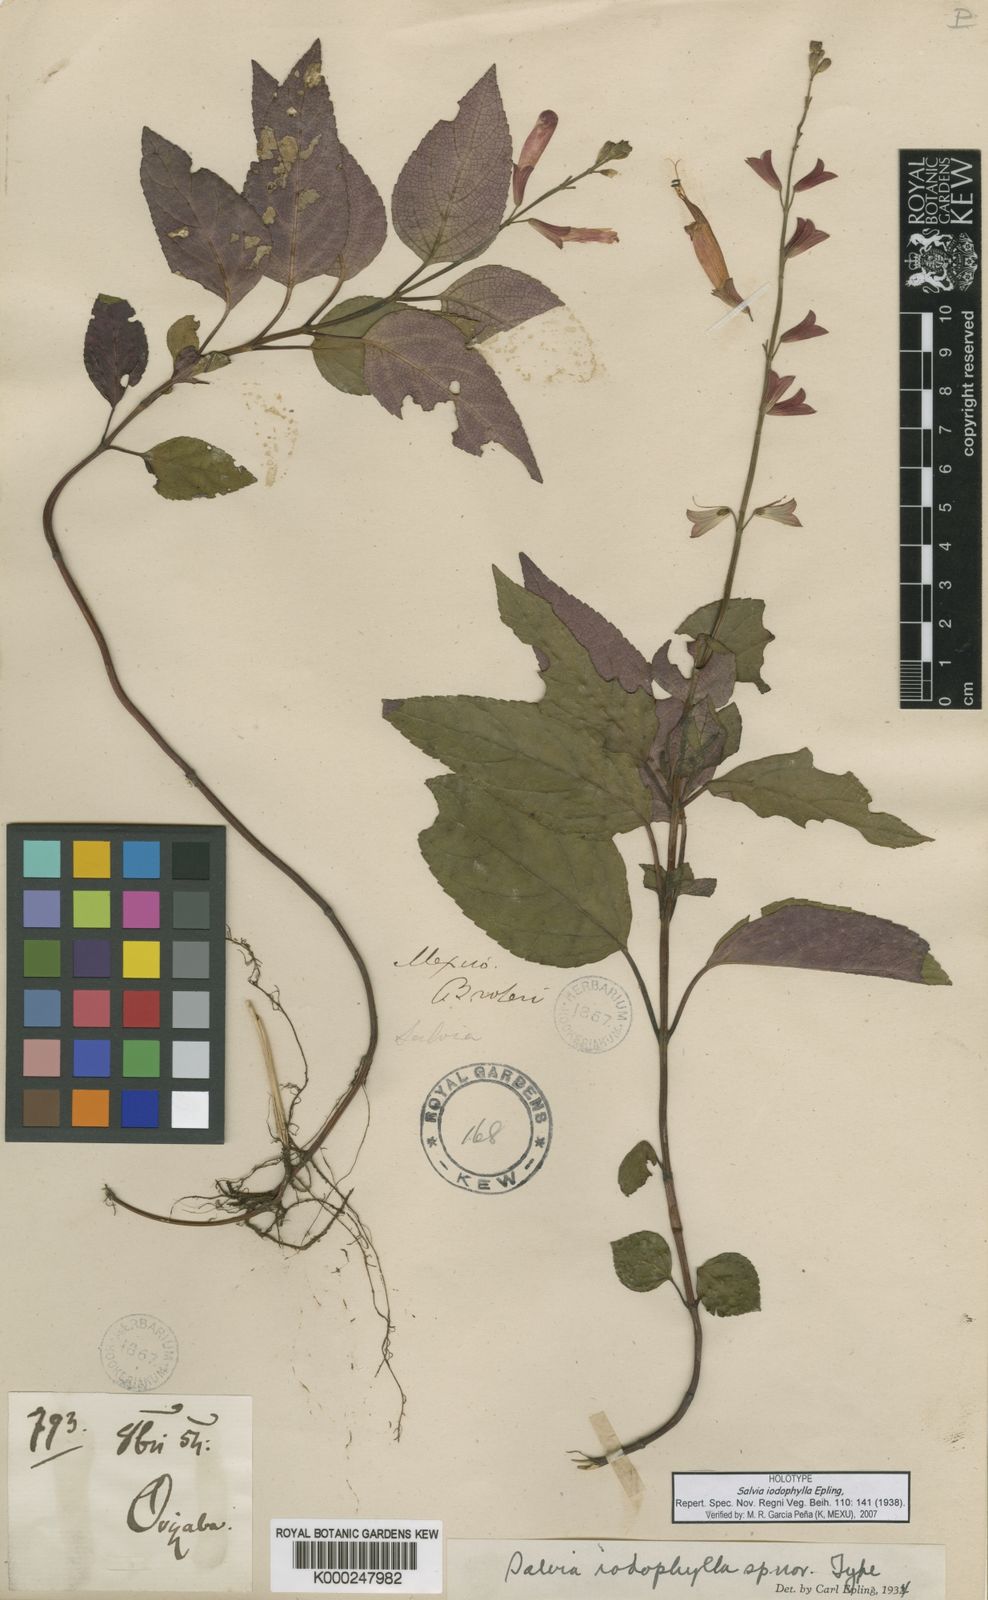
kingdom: Plantae
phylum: Tracheophyta
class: Magnoliopsida
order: Lamiales
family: Lamiaceae
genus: Salvia
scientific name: Salvia iodophylla
